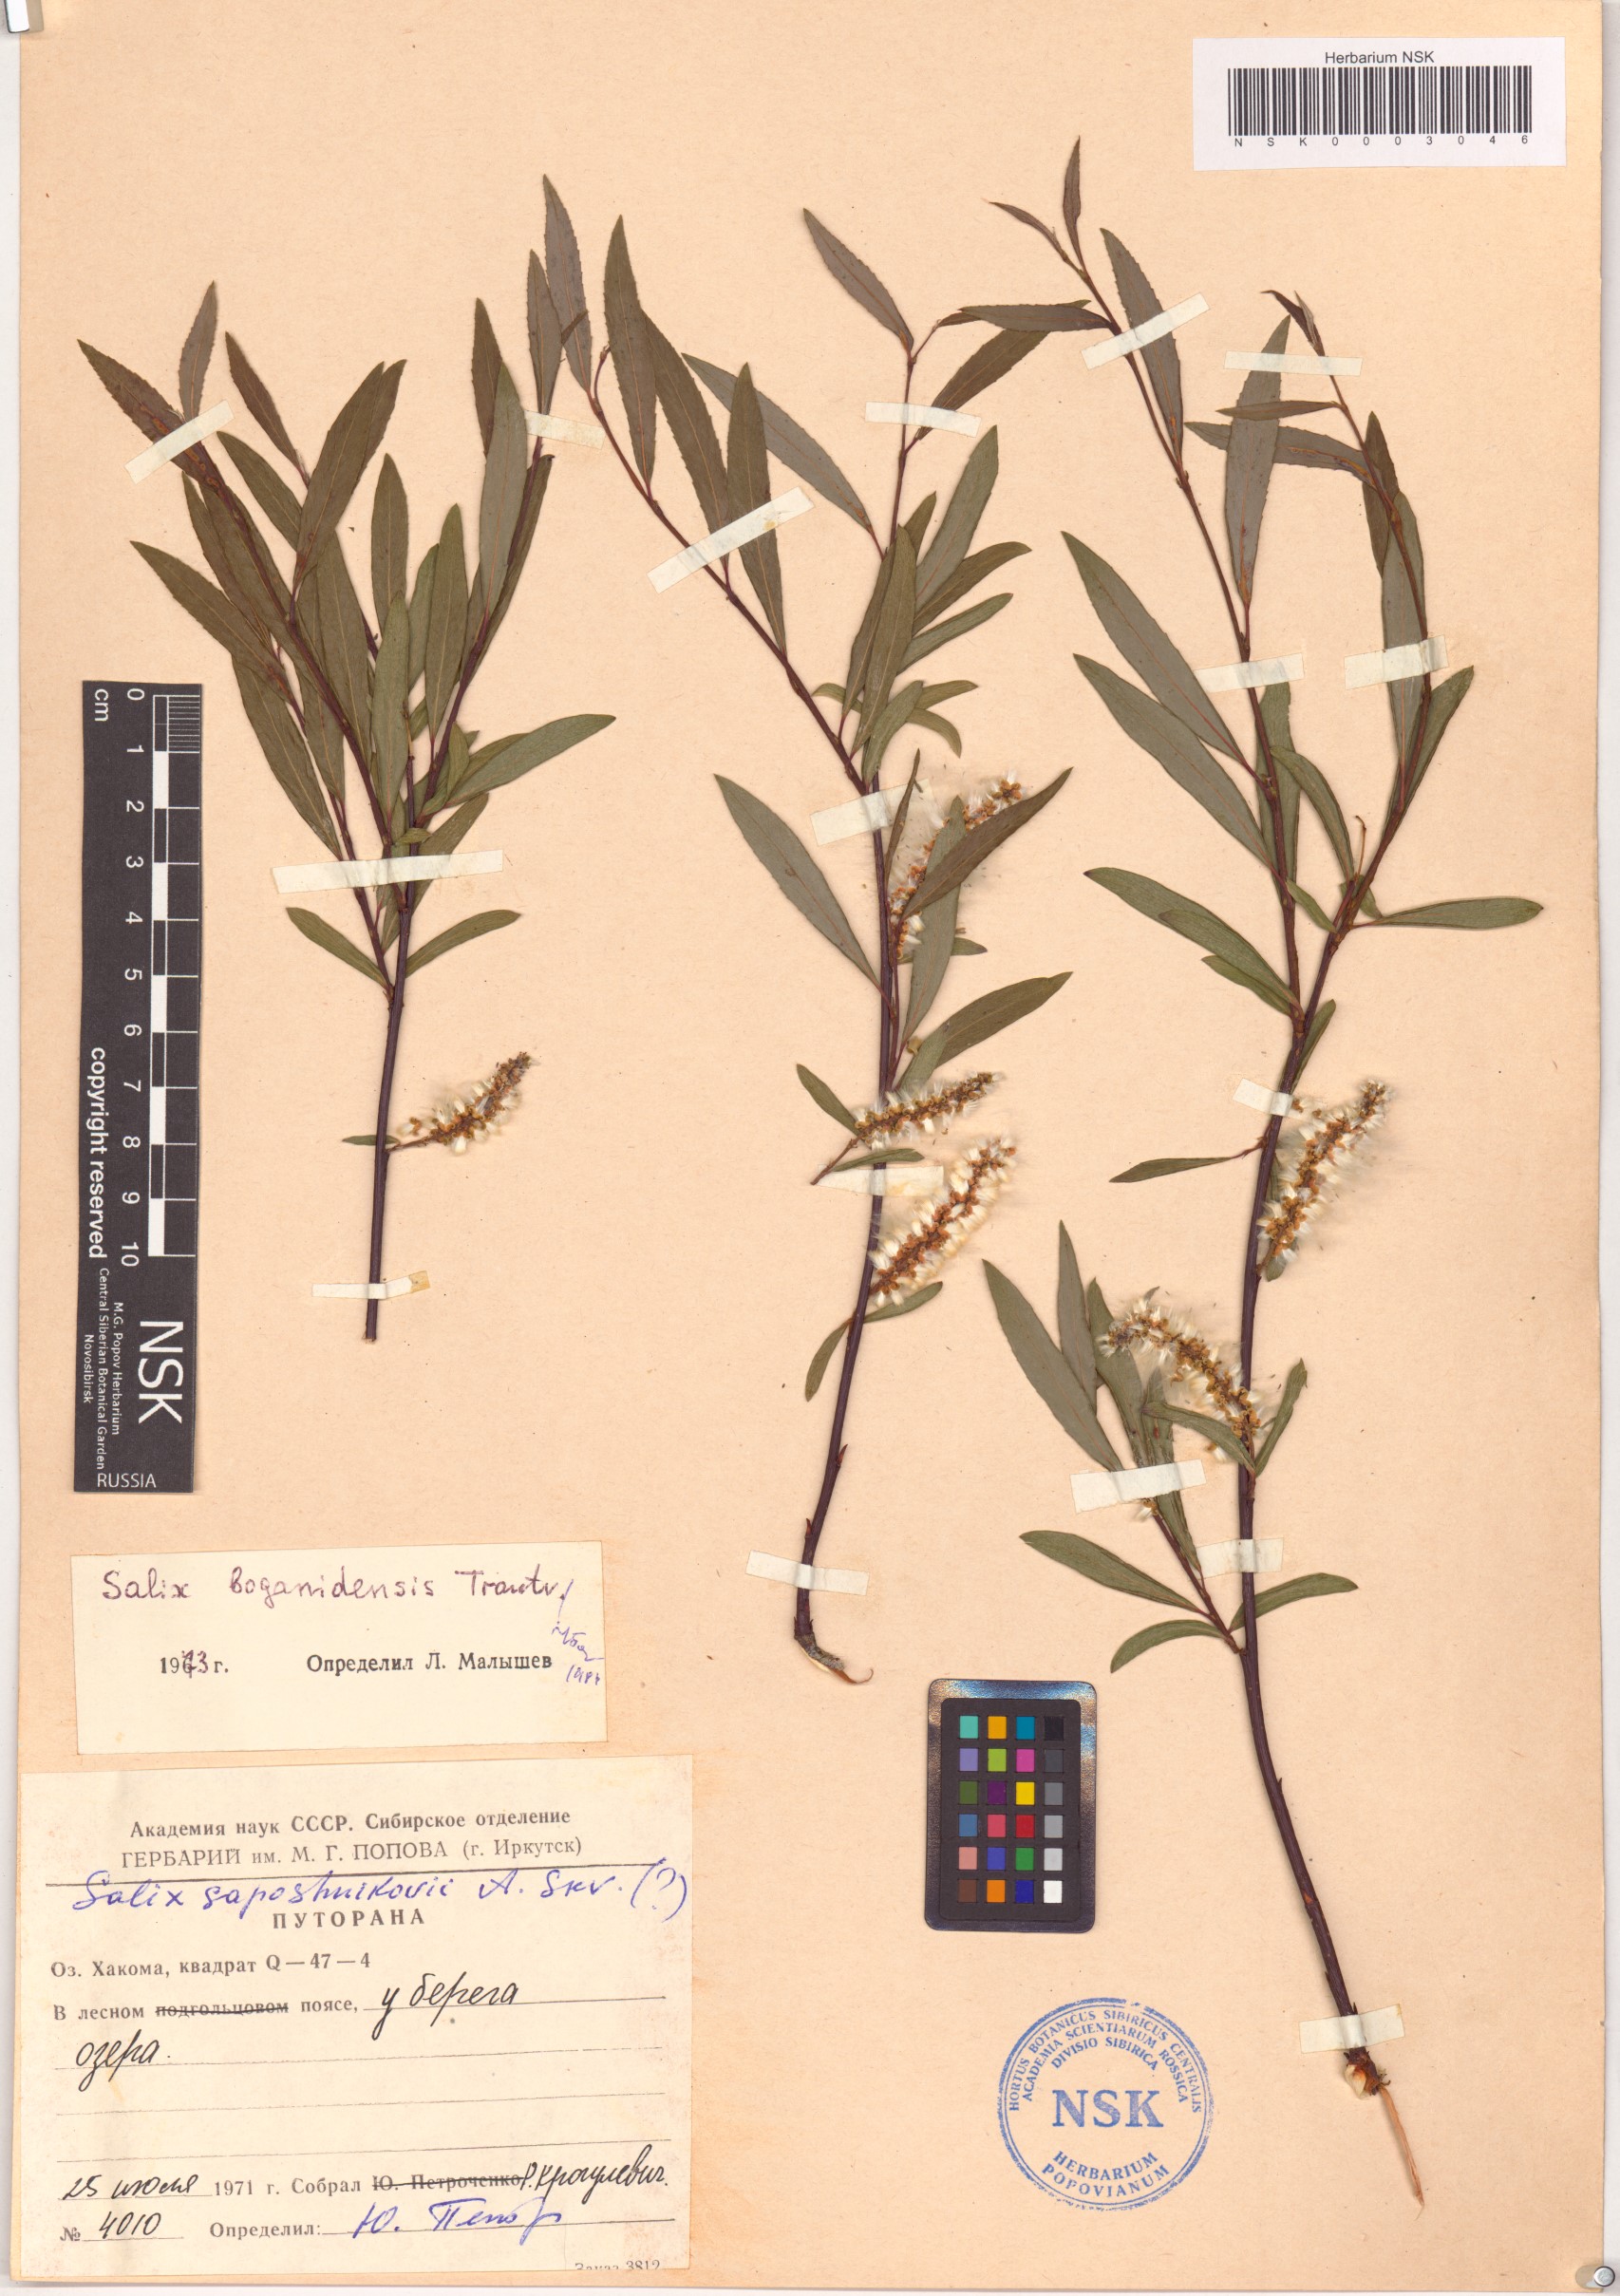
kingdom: Plantae
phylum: Tracheophyta
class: Magnoliopsida
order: Malpighiales
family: Salicaceae
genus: Salix
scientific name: Salix boganidensis
